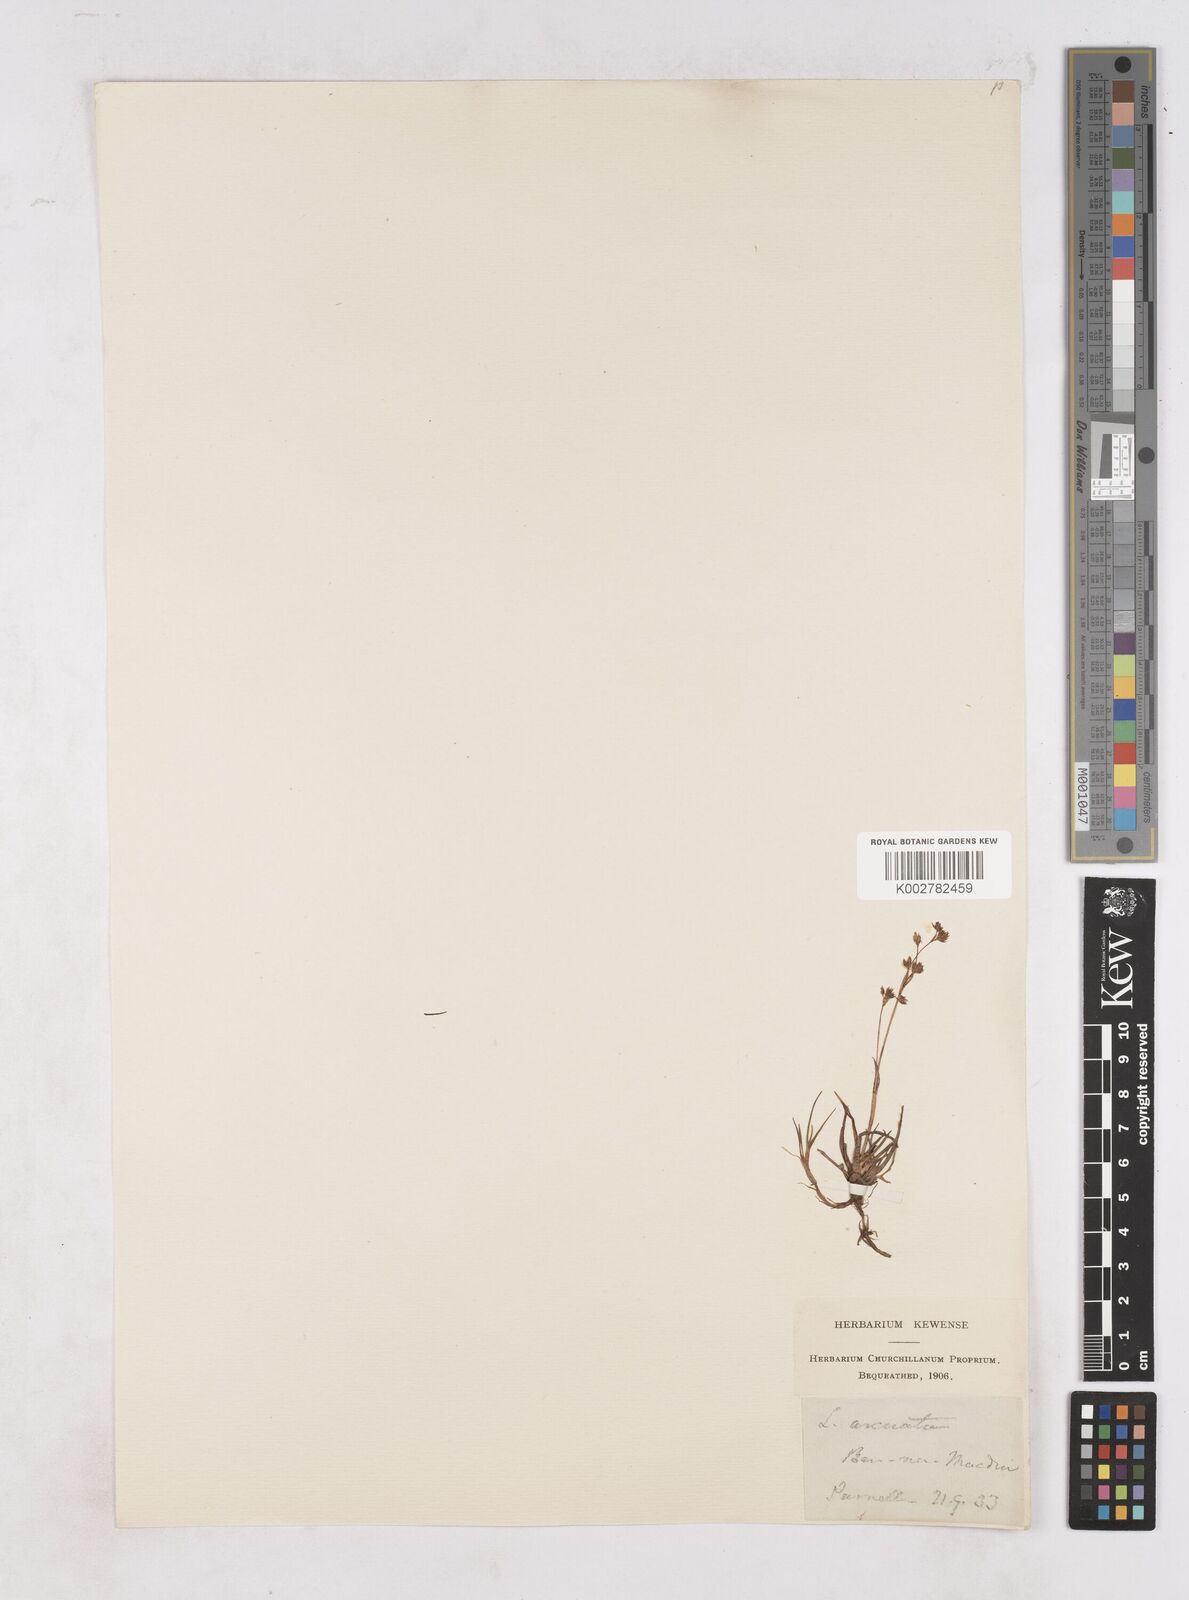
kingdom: Plantae
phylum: Tracheophyta
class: Liliopsida
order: Poales
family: Juncaceae
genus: Luzula
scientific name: Luzula arcuata
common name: Curved wood-rush
